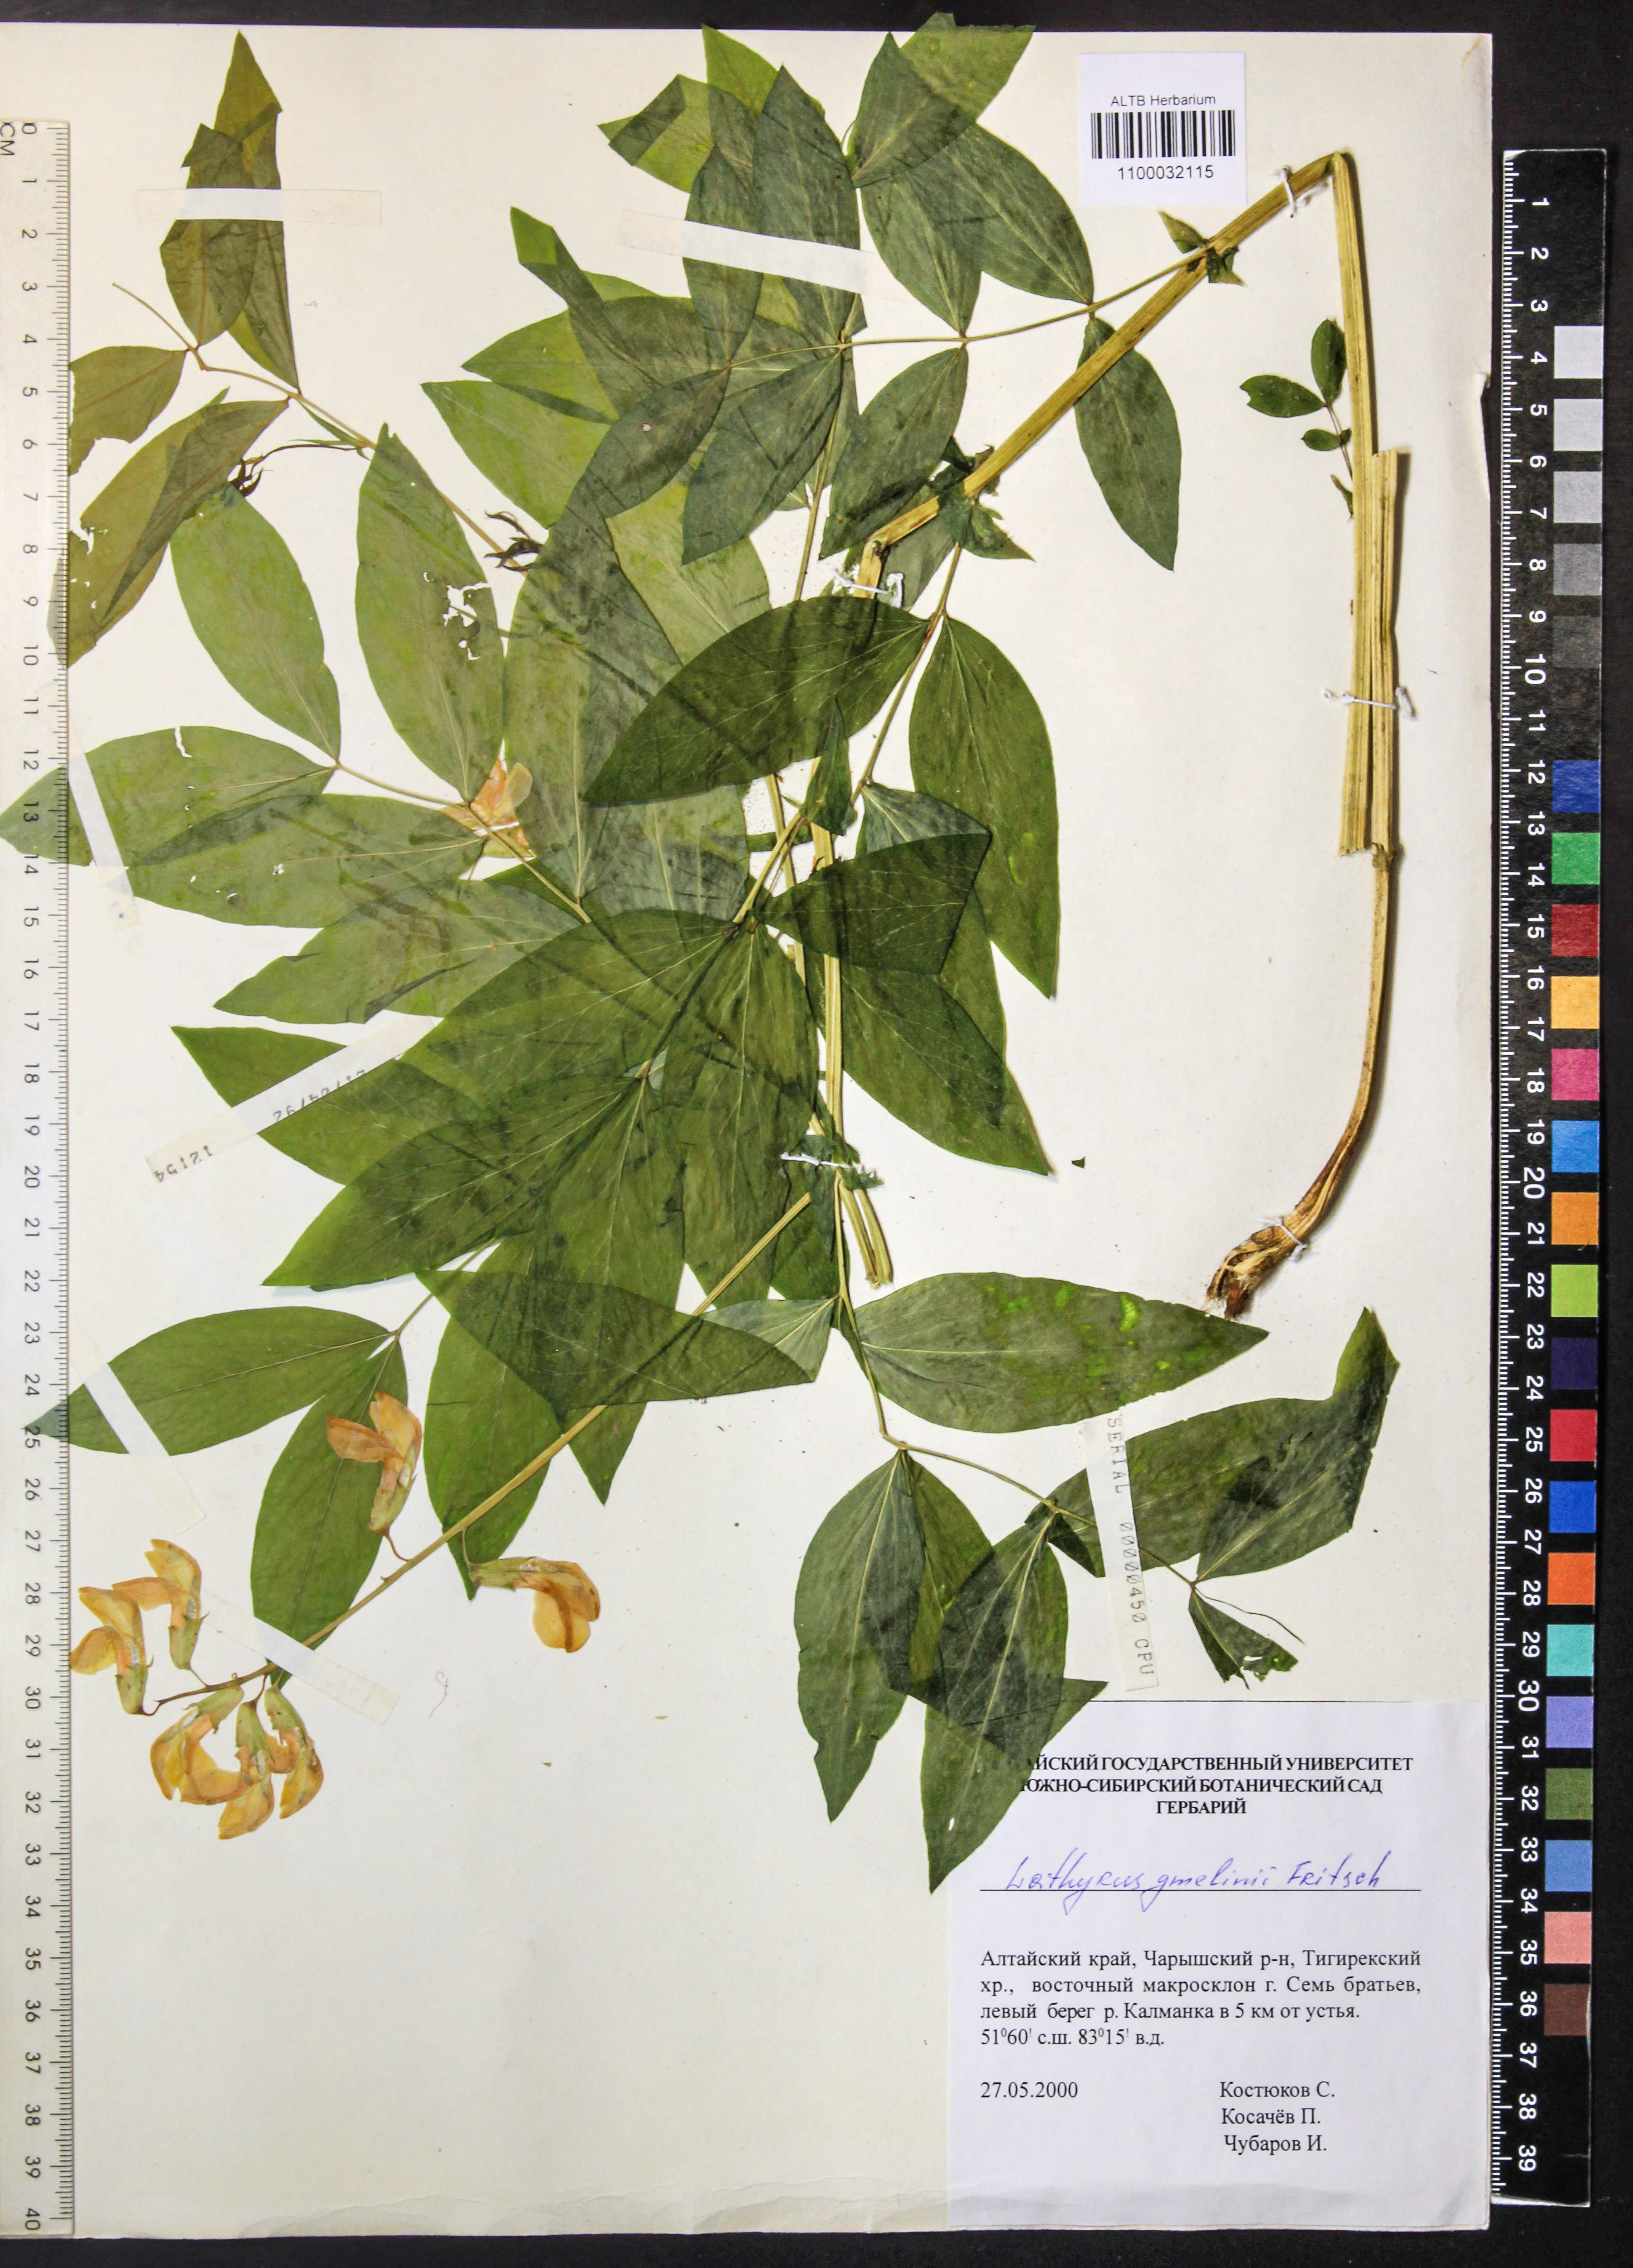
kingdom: Plantae
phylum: Tracheophyta
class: Magnoliopsida
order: Fabales
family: Fabaceae
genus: Lathyrus
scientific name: Lathyrus gmelinii
